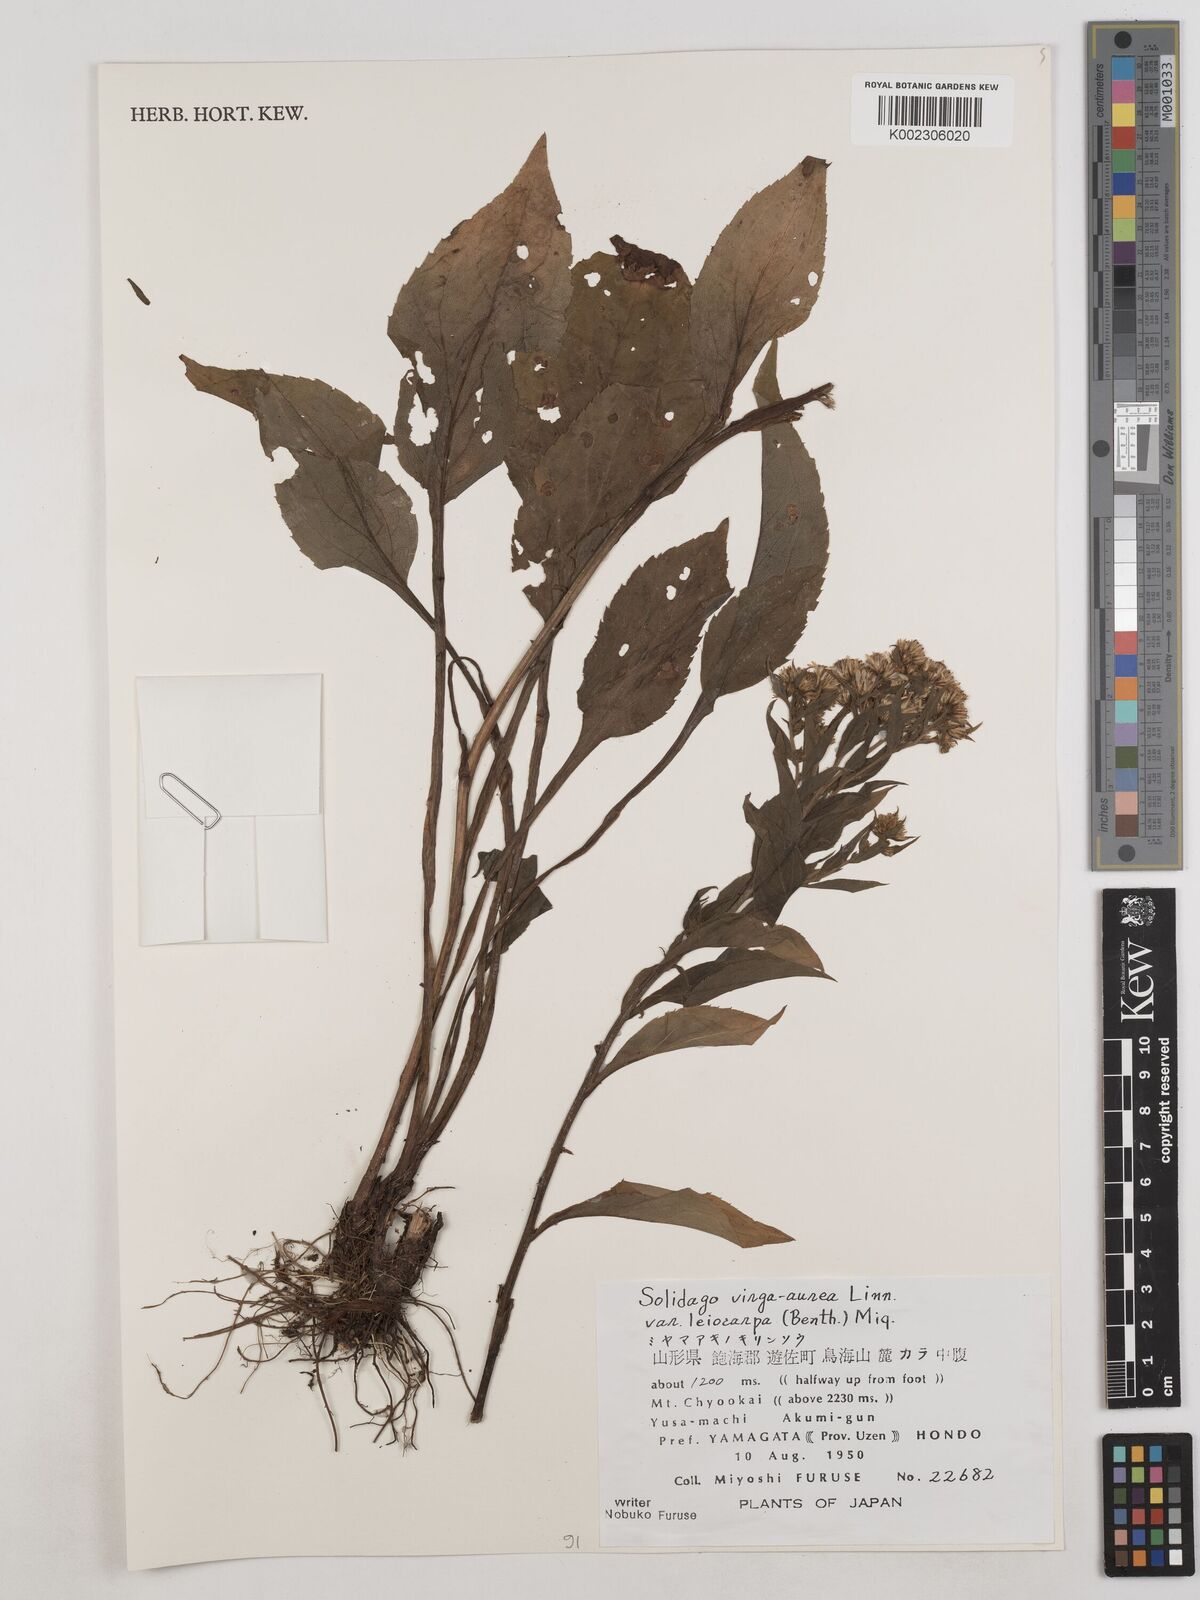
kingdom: Plantae
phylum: Tracheophyta
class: Magnoliopsida
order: Asterales
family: Asteraceae
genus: Solidago
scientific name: Solidago decurrens
